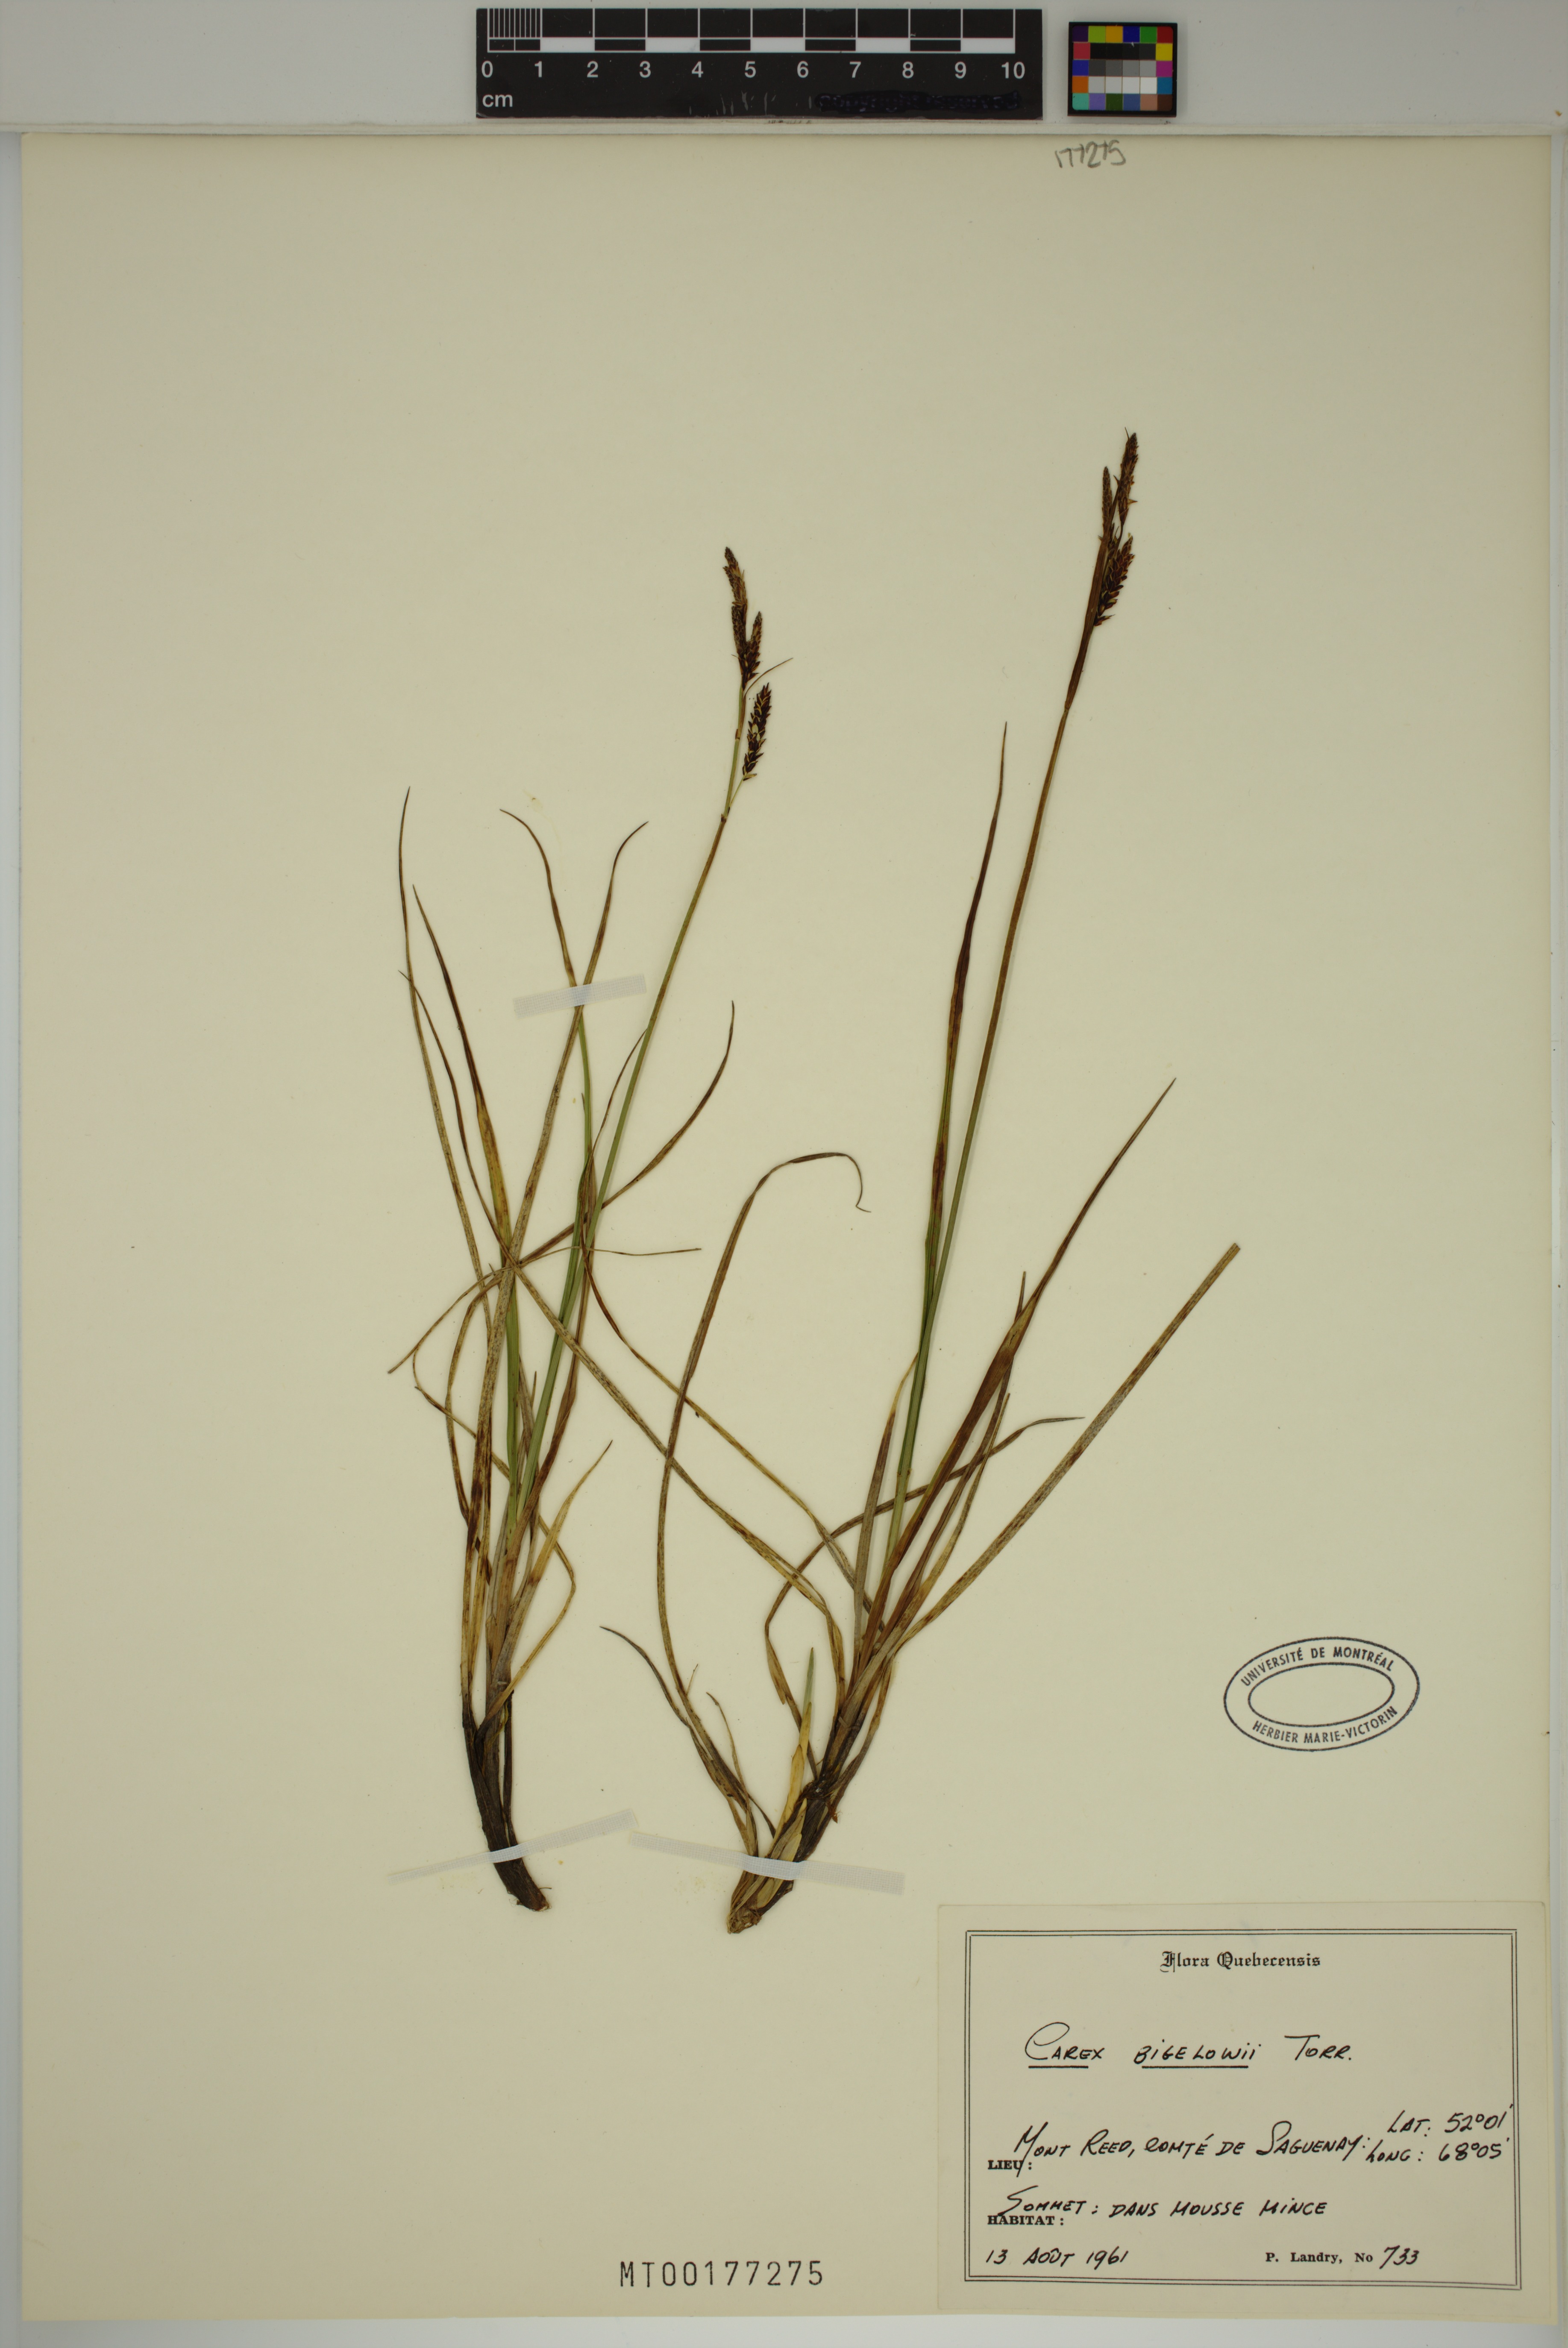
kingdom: Plantae
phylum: Tracheophyta
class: Liliopsida
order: Poales
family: Cyperaceae
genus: Carex
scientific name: Carex bigelowii
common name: Stiff sedge
